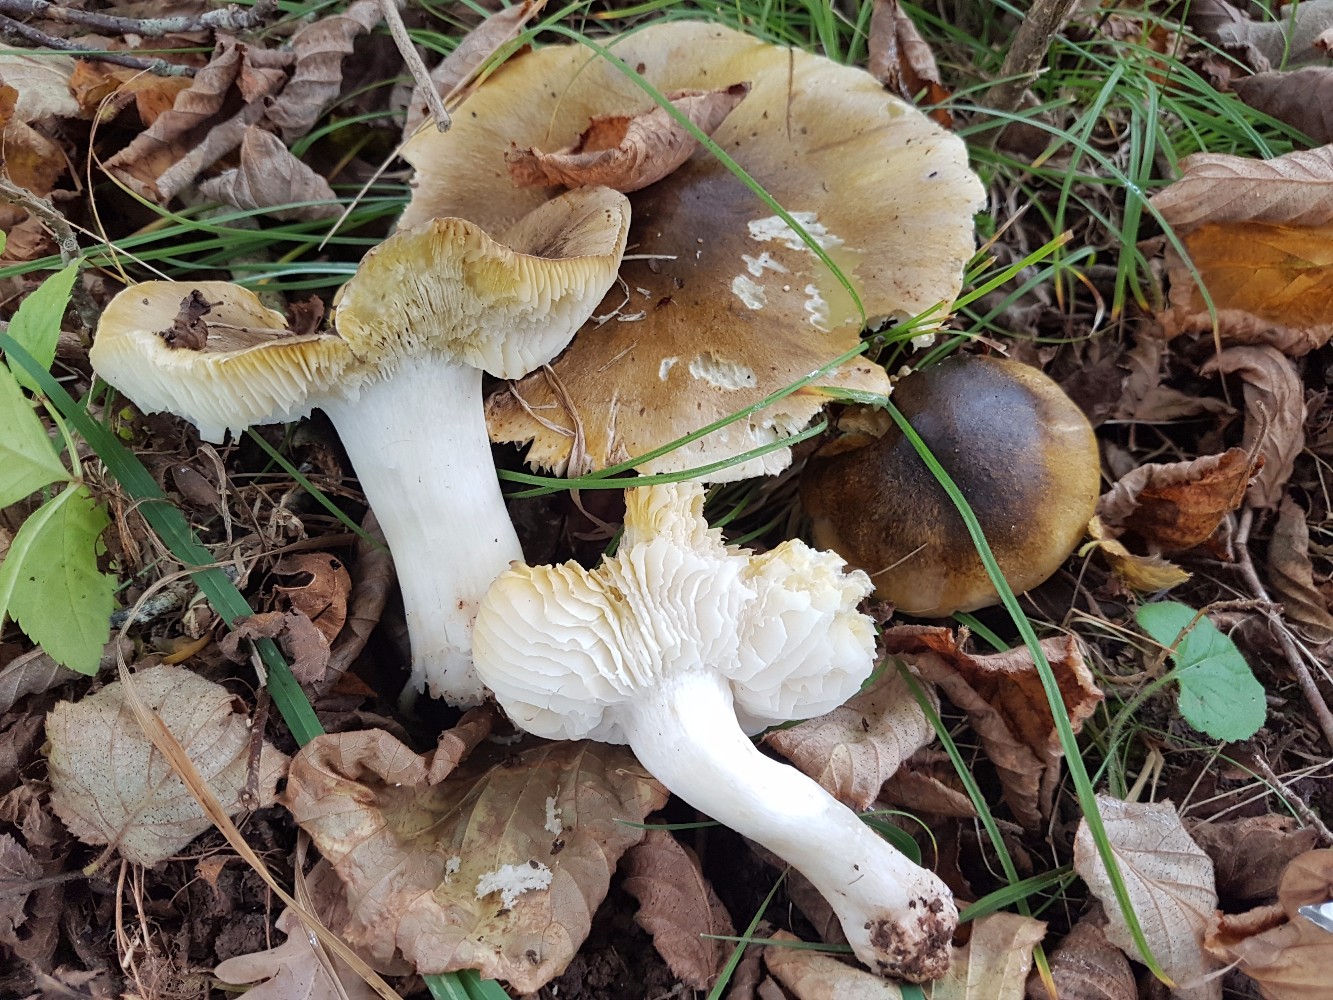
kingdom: Fungi
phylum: Basidiomycota
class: Agaricomycetes
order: Agaricales
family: Tricholomataceae
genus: Tricholoma
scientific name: Tricholoma sejunctum
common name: grøngul ridderhat
